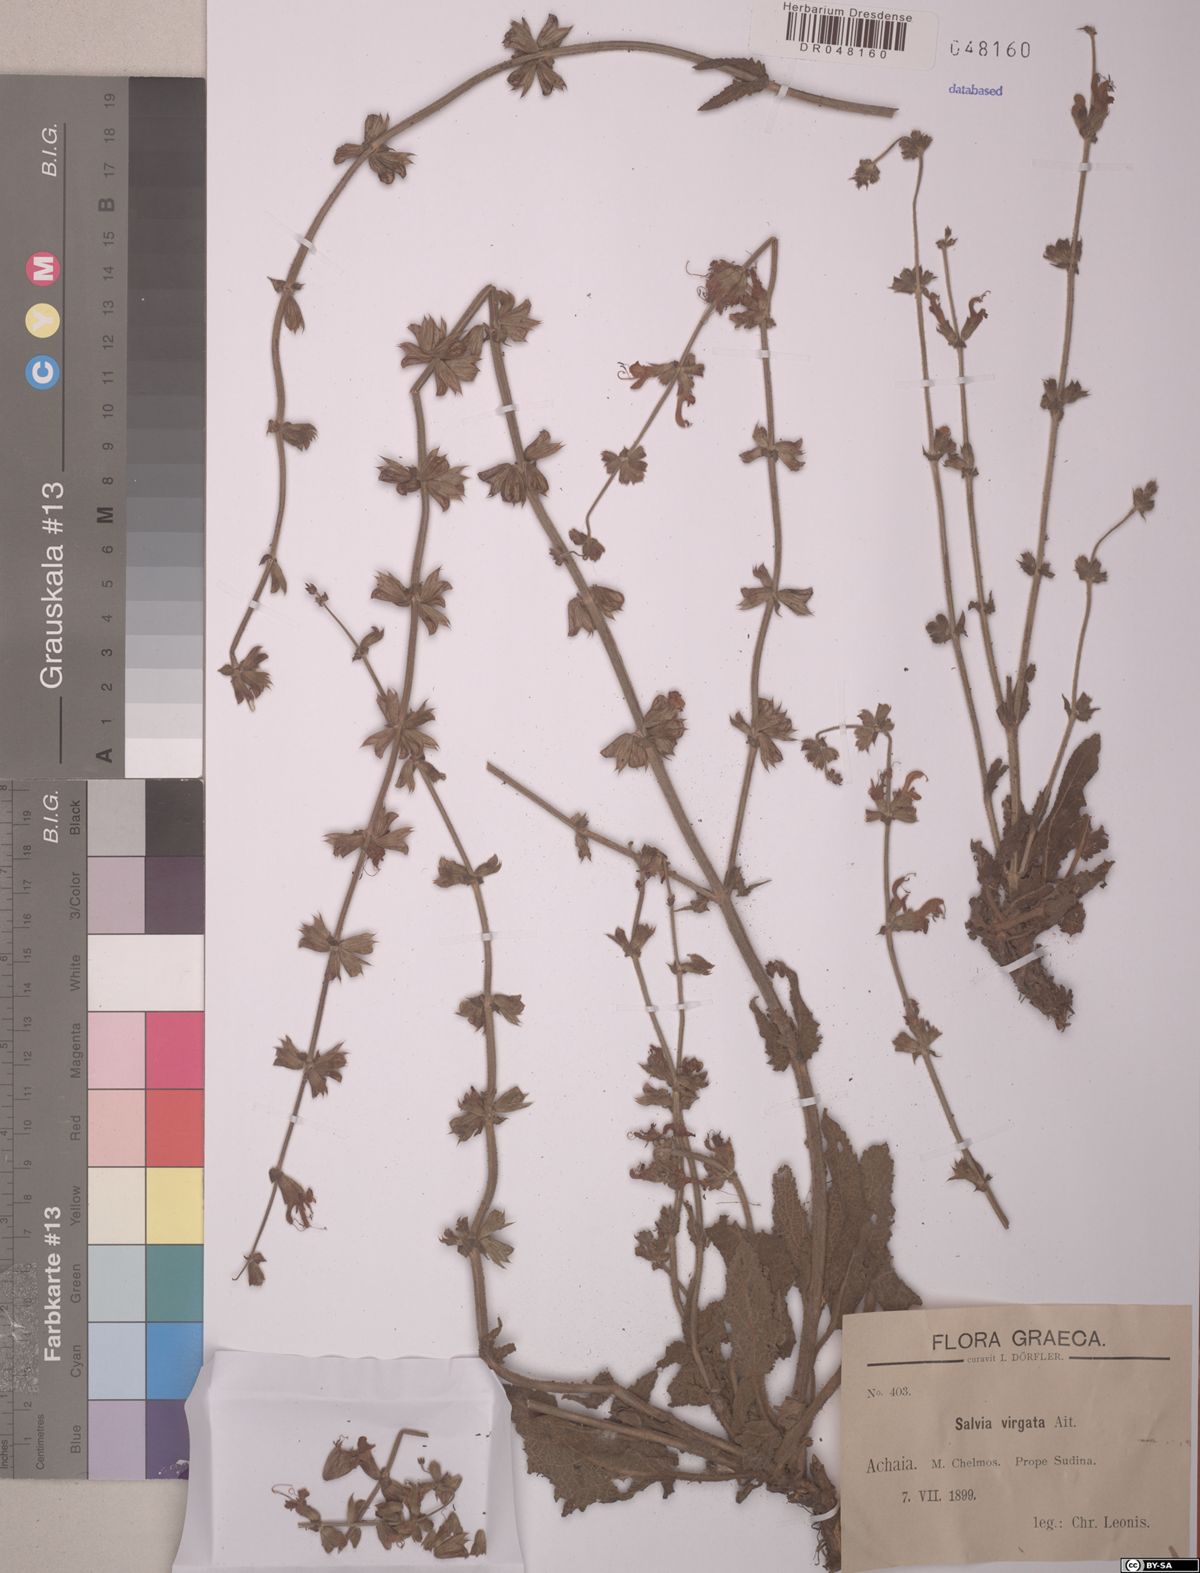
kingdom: Plantae
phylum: Tracheophyta
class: Magnoliopsida
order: Lamiales
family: Lamiaceae
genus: Salvia
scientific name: Salvia virgata
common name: Wand sage
